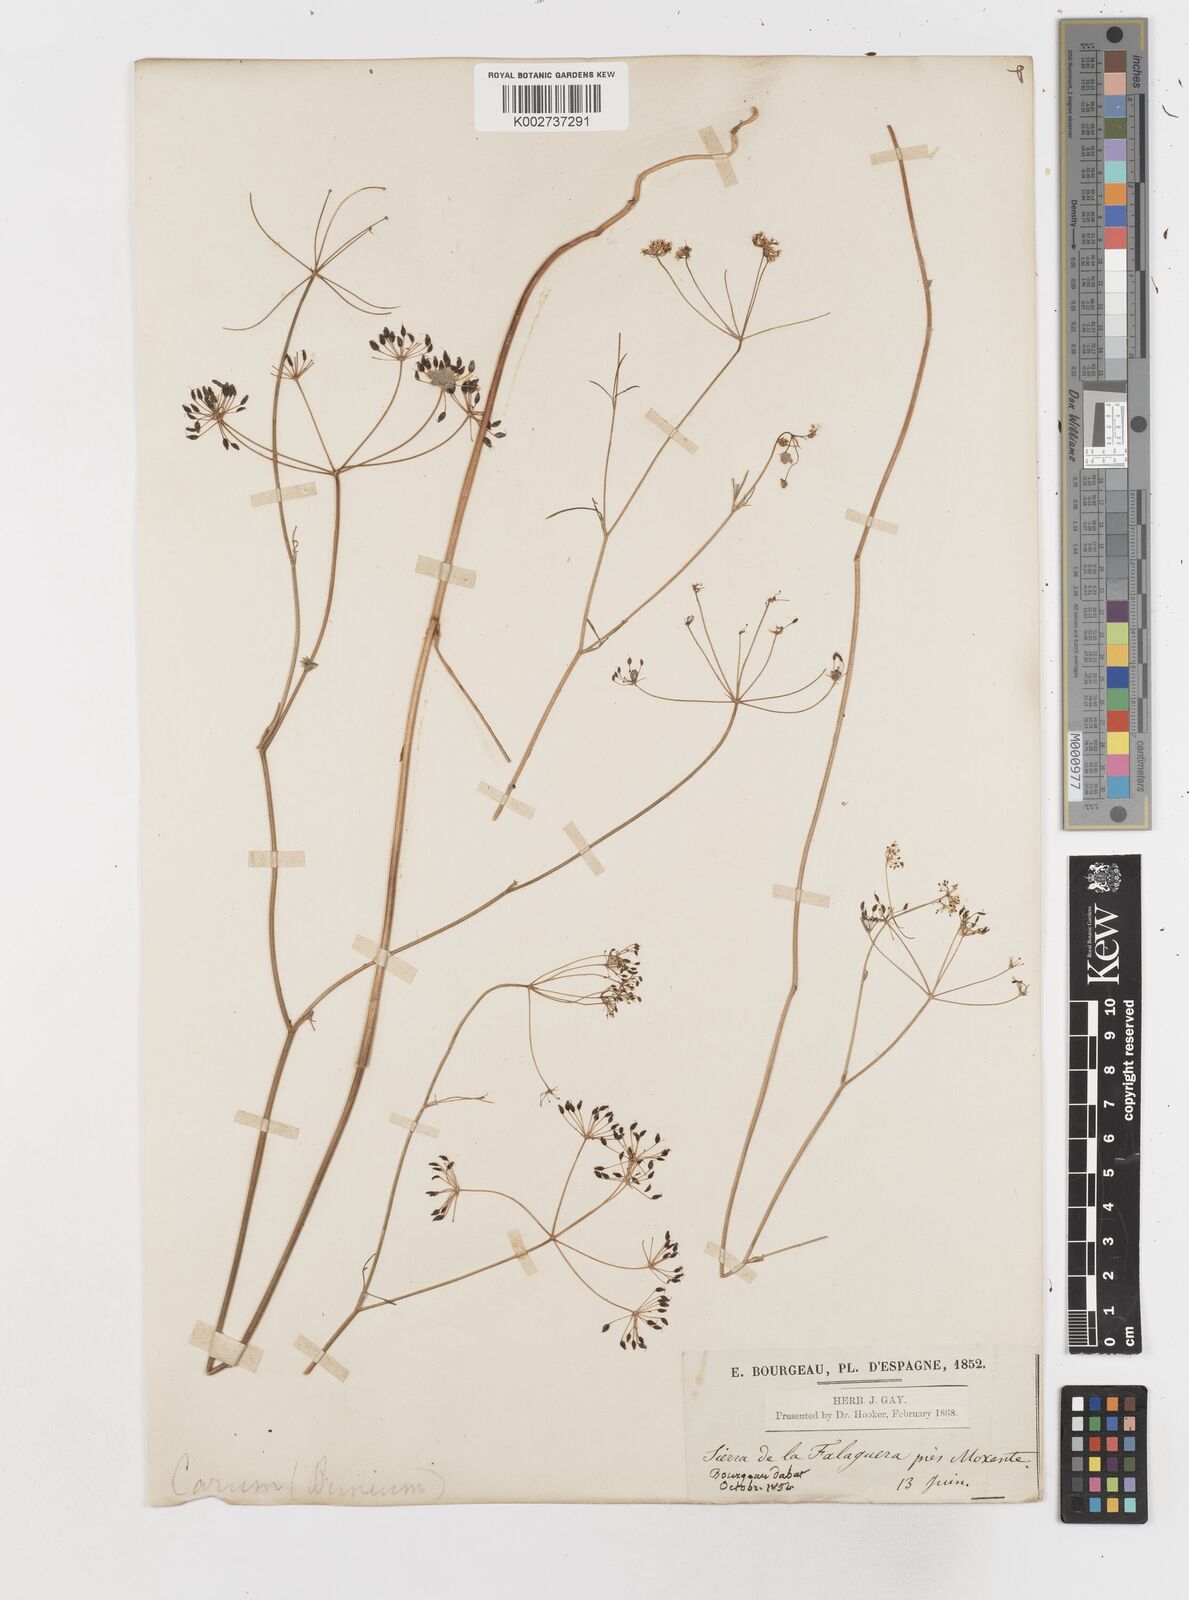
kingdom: Plantae
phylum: Tracheophyta
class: Magnoliopsida
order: Apiales
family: Apiaceae
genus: Conopodium
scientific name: Conopodium arvense
